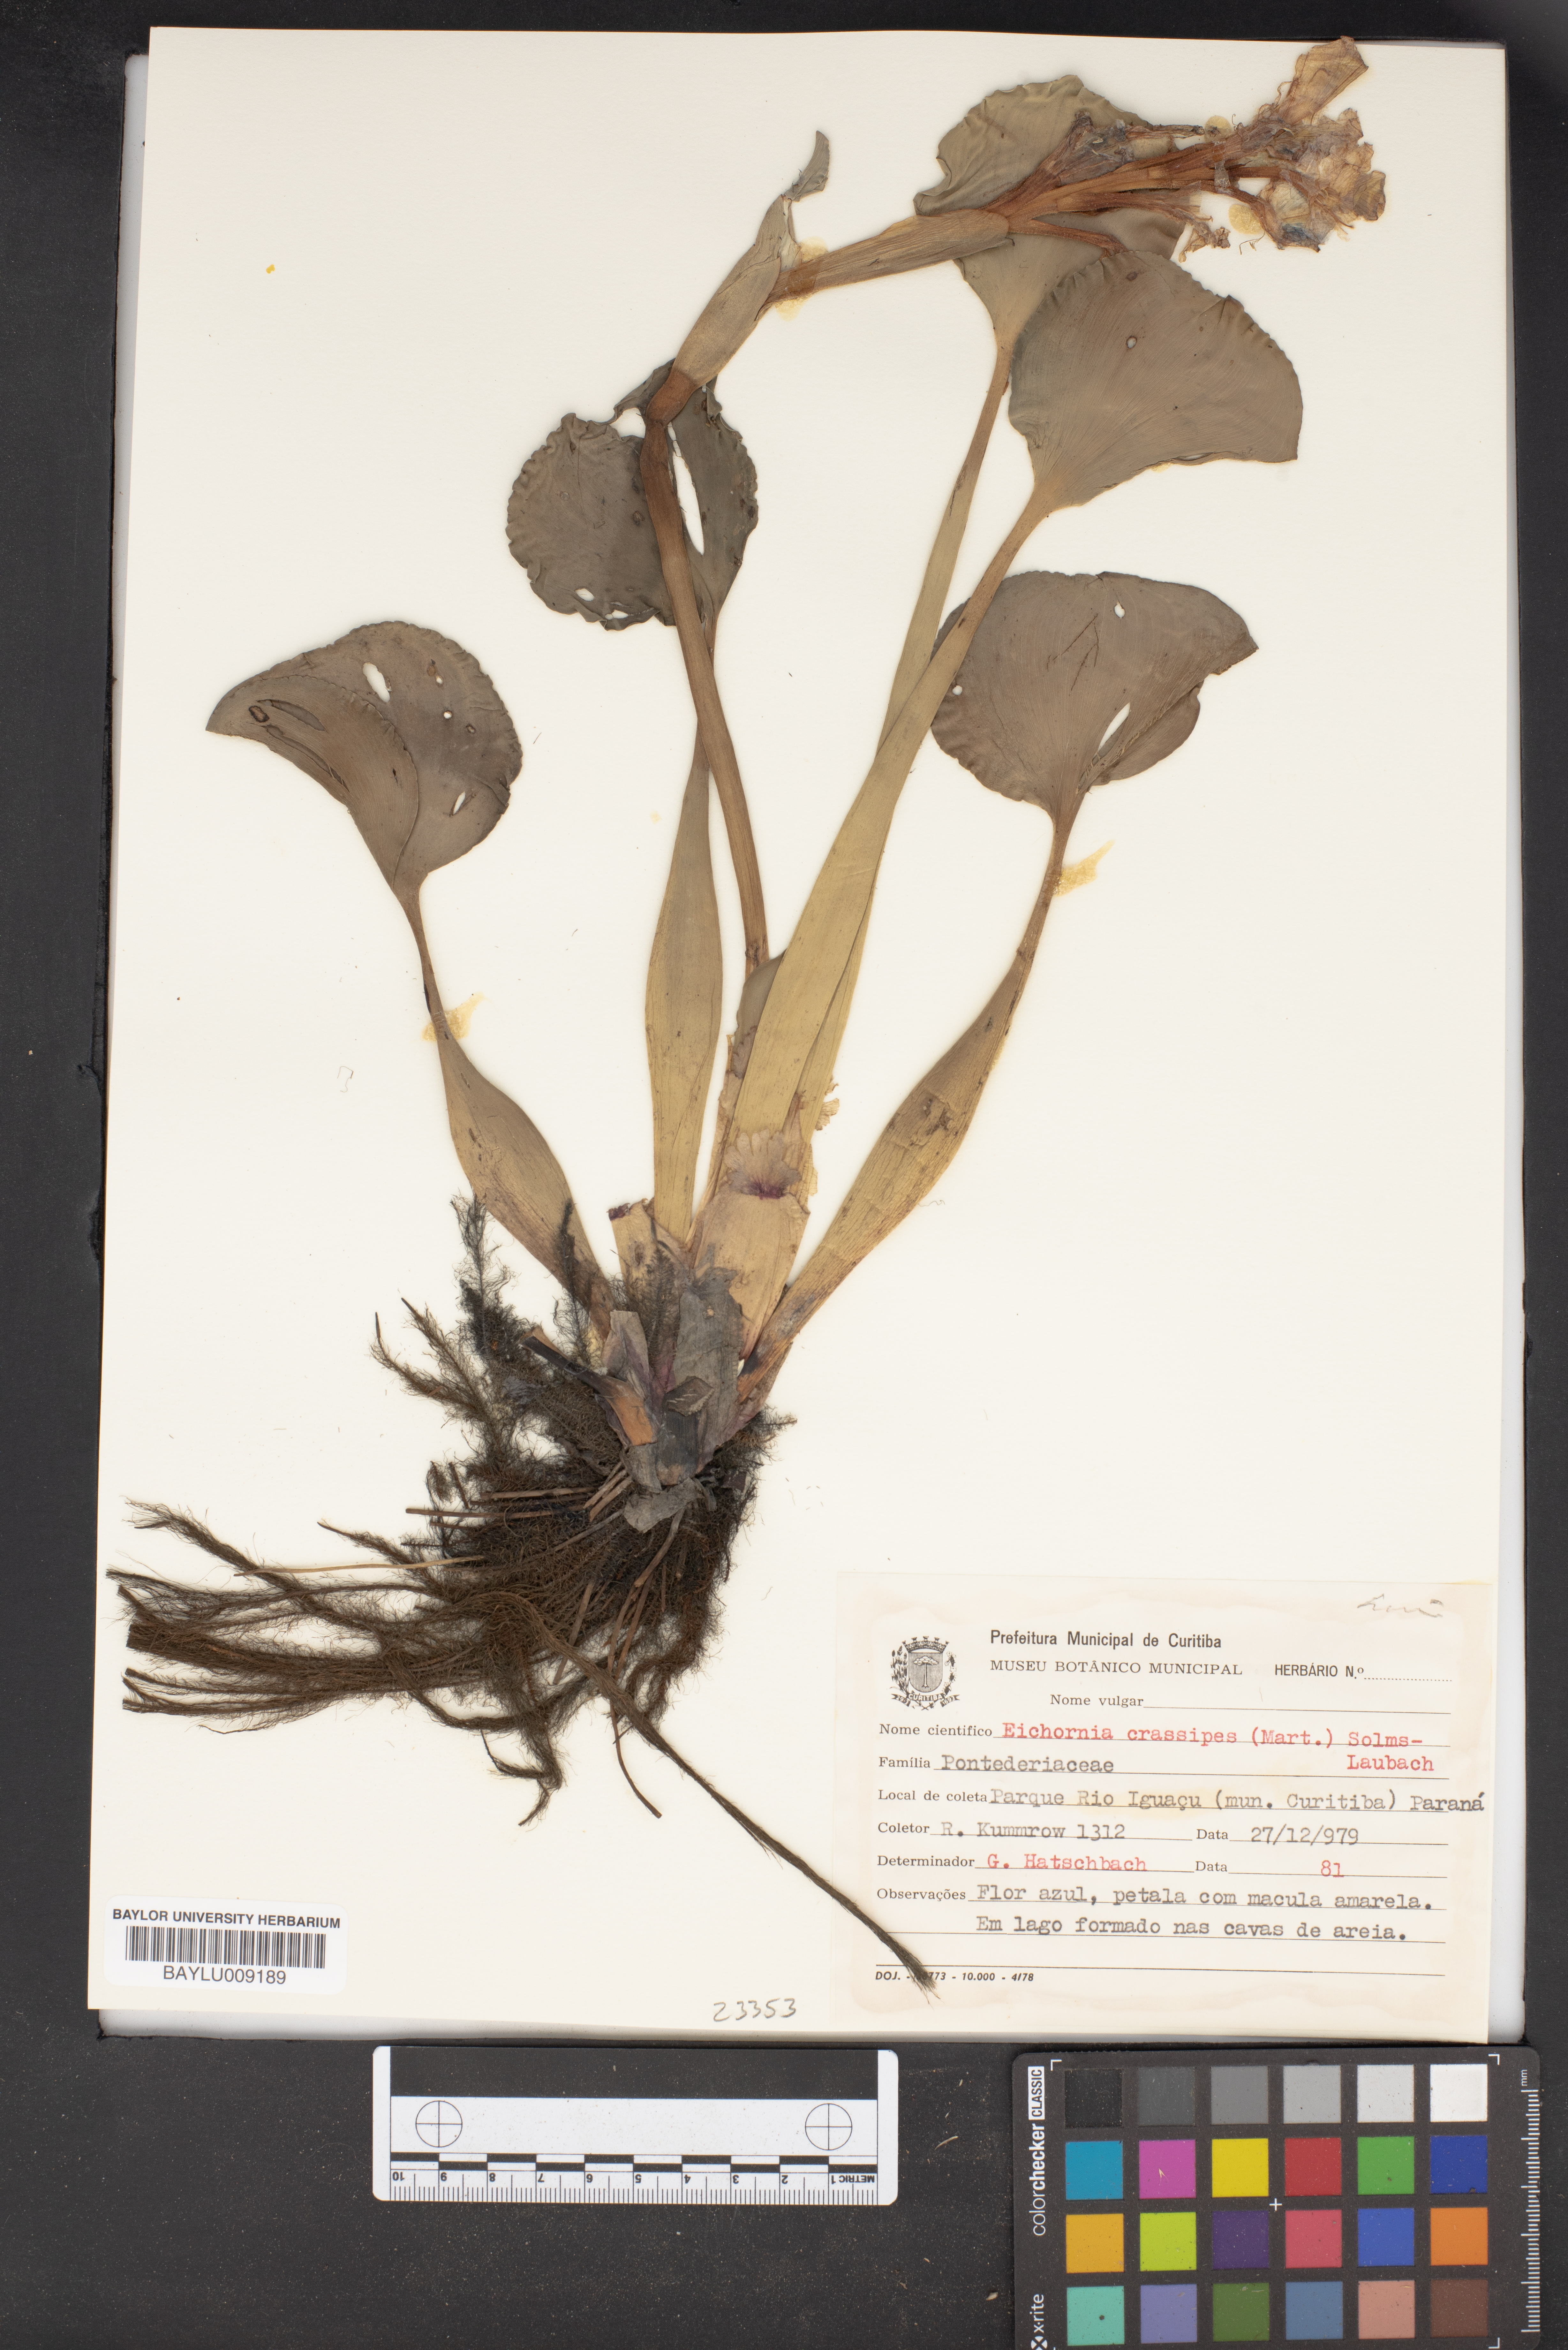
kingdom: Plantae
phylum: Tracheophyta
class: Liliopsida
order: Commelinales
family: Pontederiaceae
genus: Pontederia
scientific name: Pontederia crassipes
